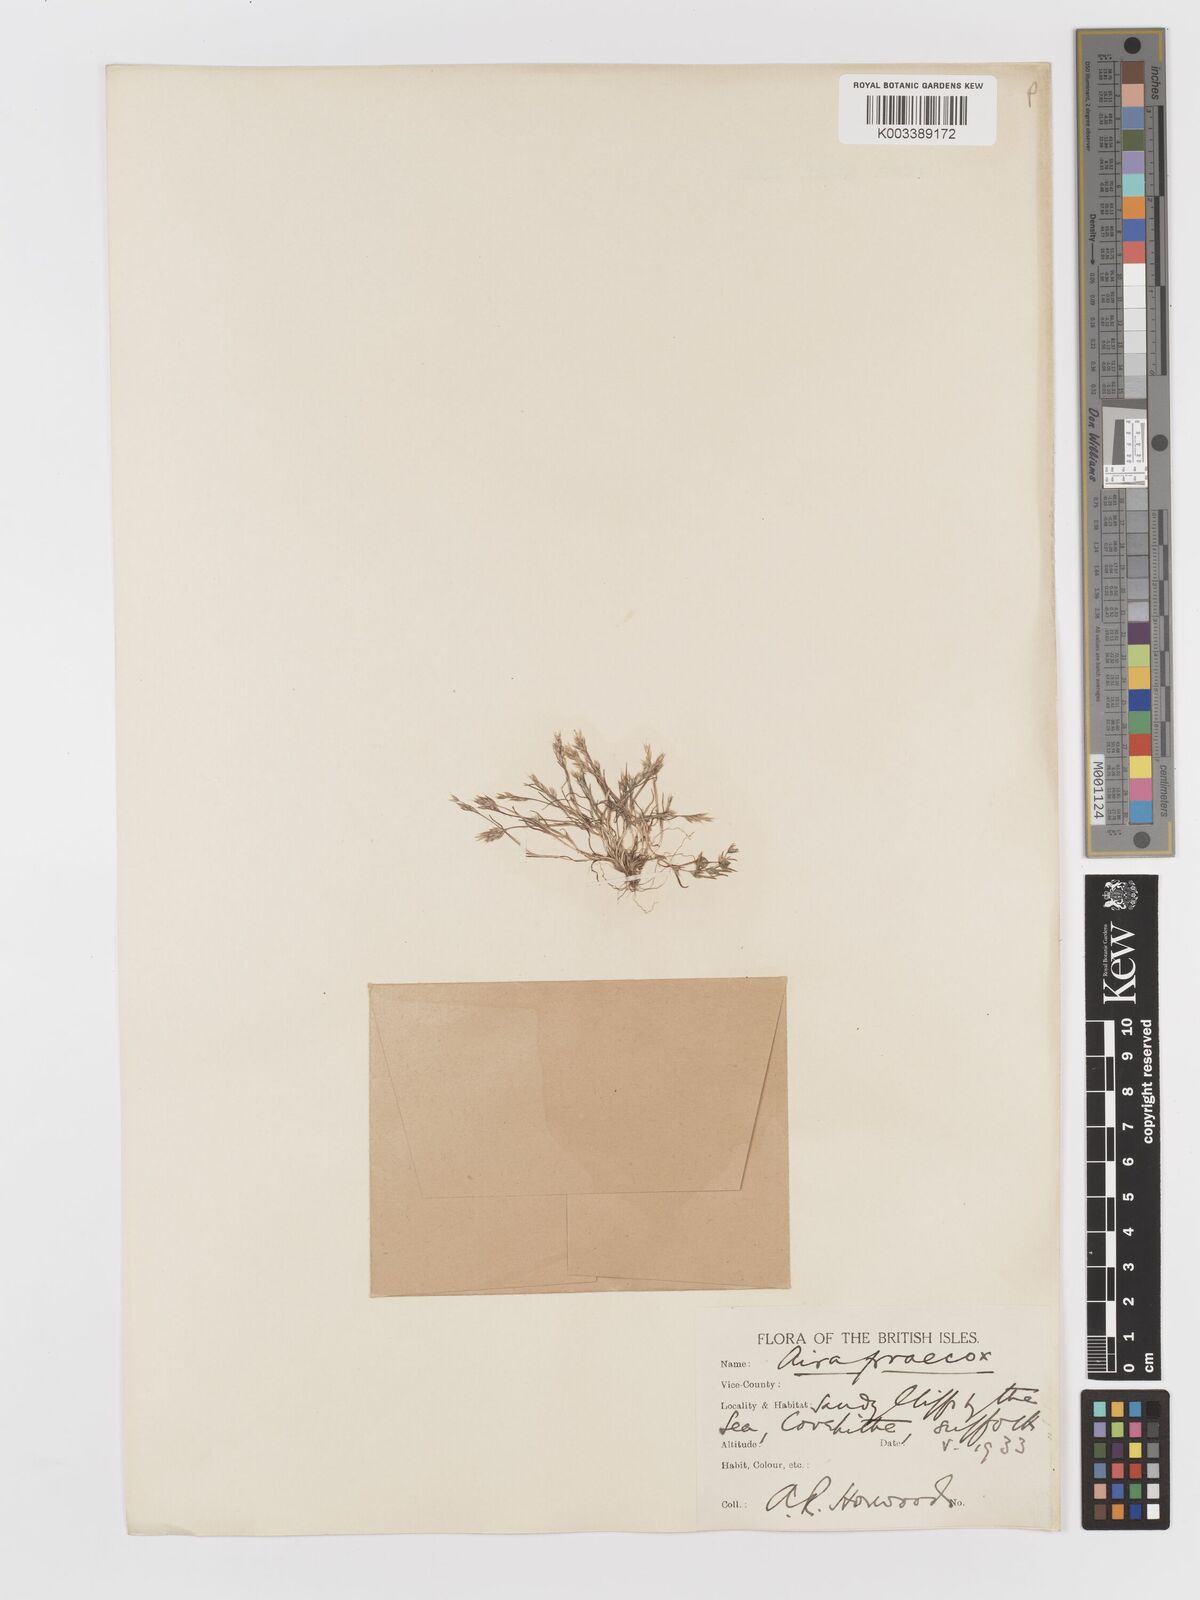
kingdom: Plantae
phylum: Tracheophyta
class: Liliopsida
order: Poales
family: Poaceae
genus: Aira
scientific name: Aira praecox
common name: Early hair-grass
